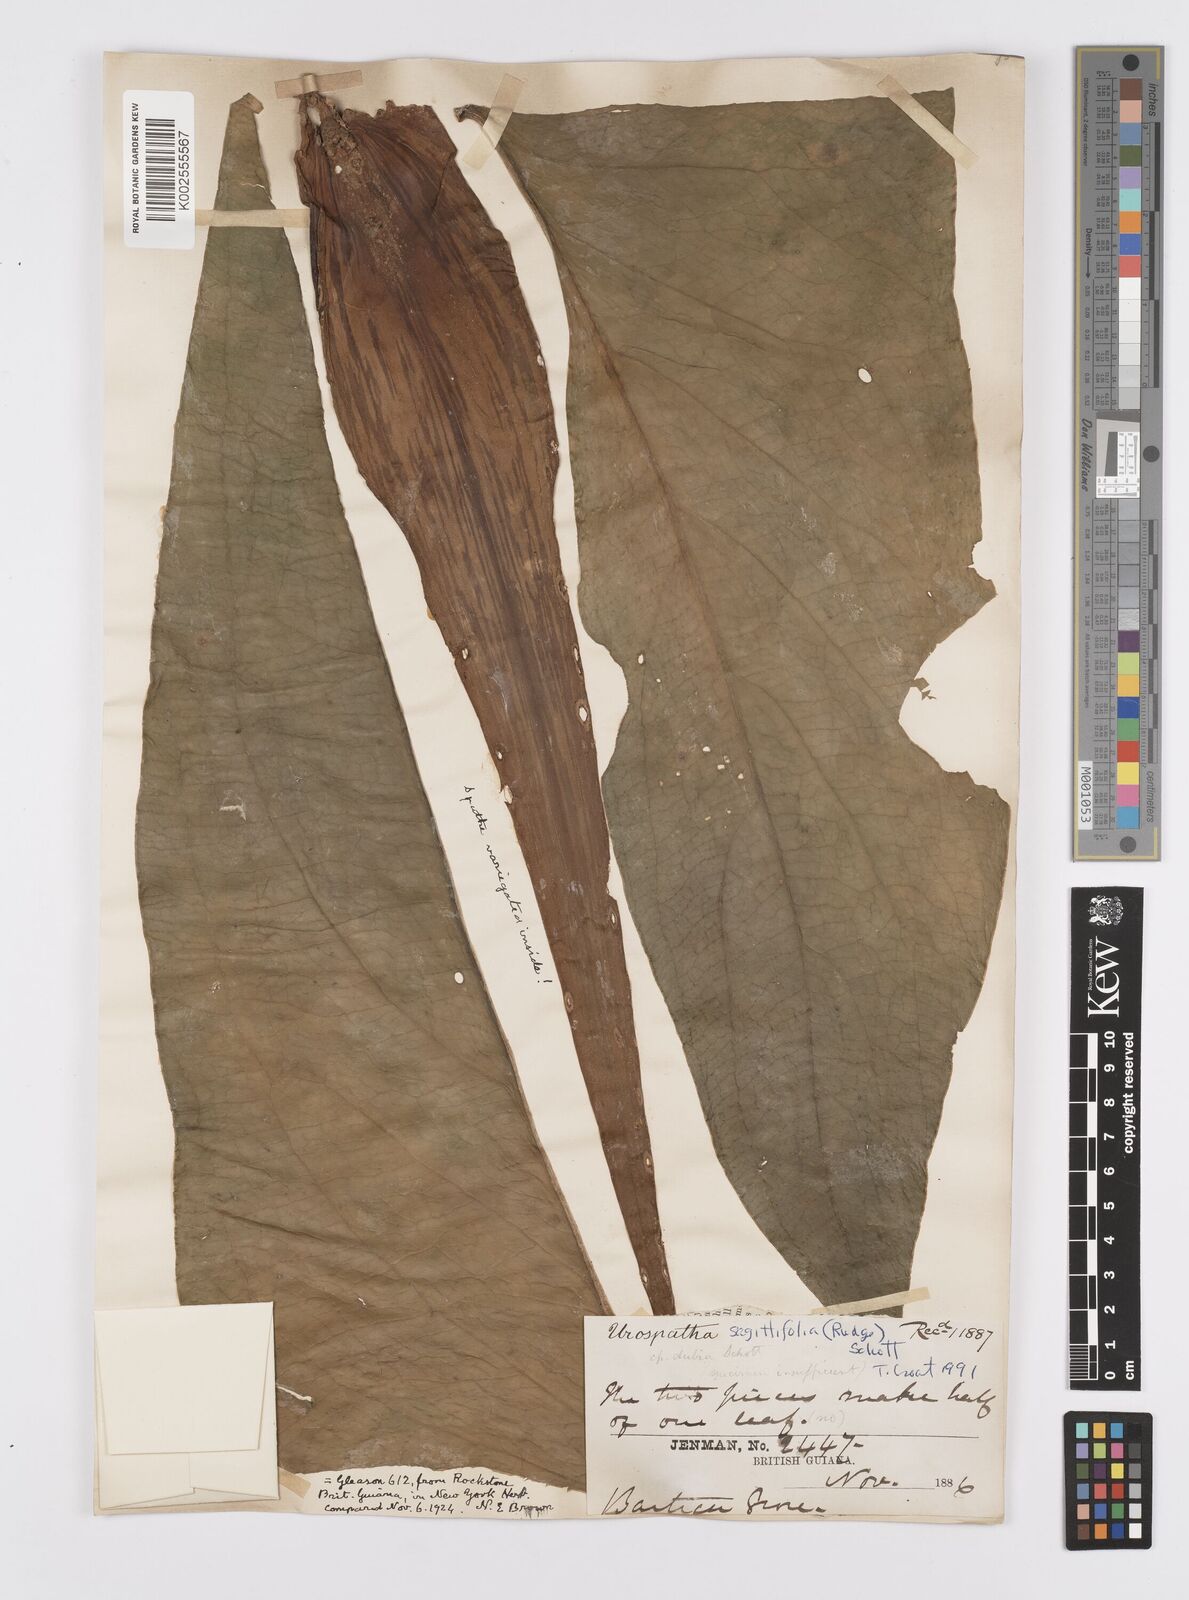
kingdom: Plantae
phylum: Tracheophyta
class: Liliopsida
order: Alismatales
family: Araceae
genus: Urospatha
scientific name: Urospatha sagittifolia
